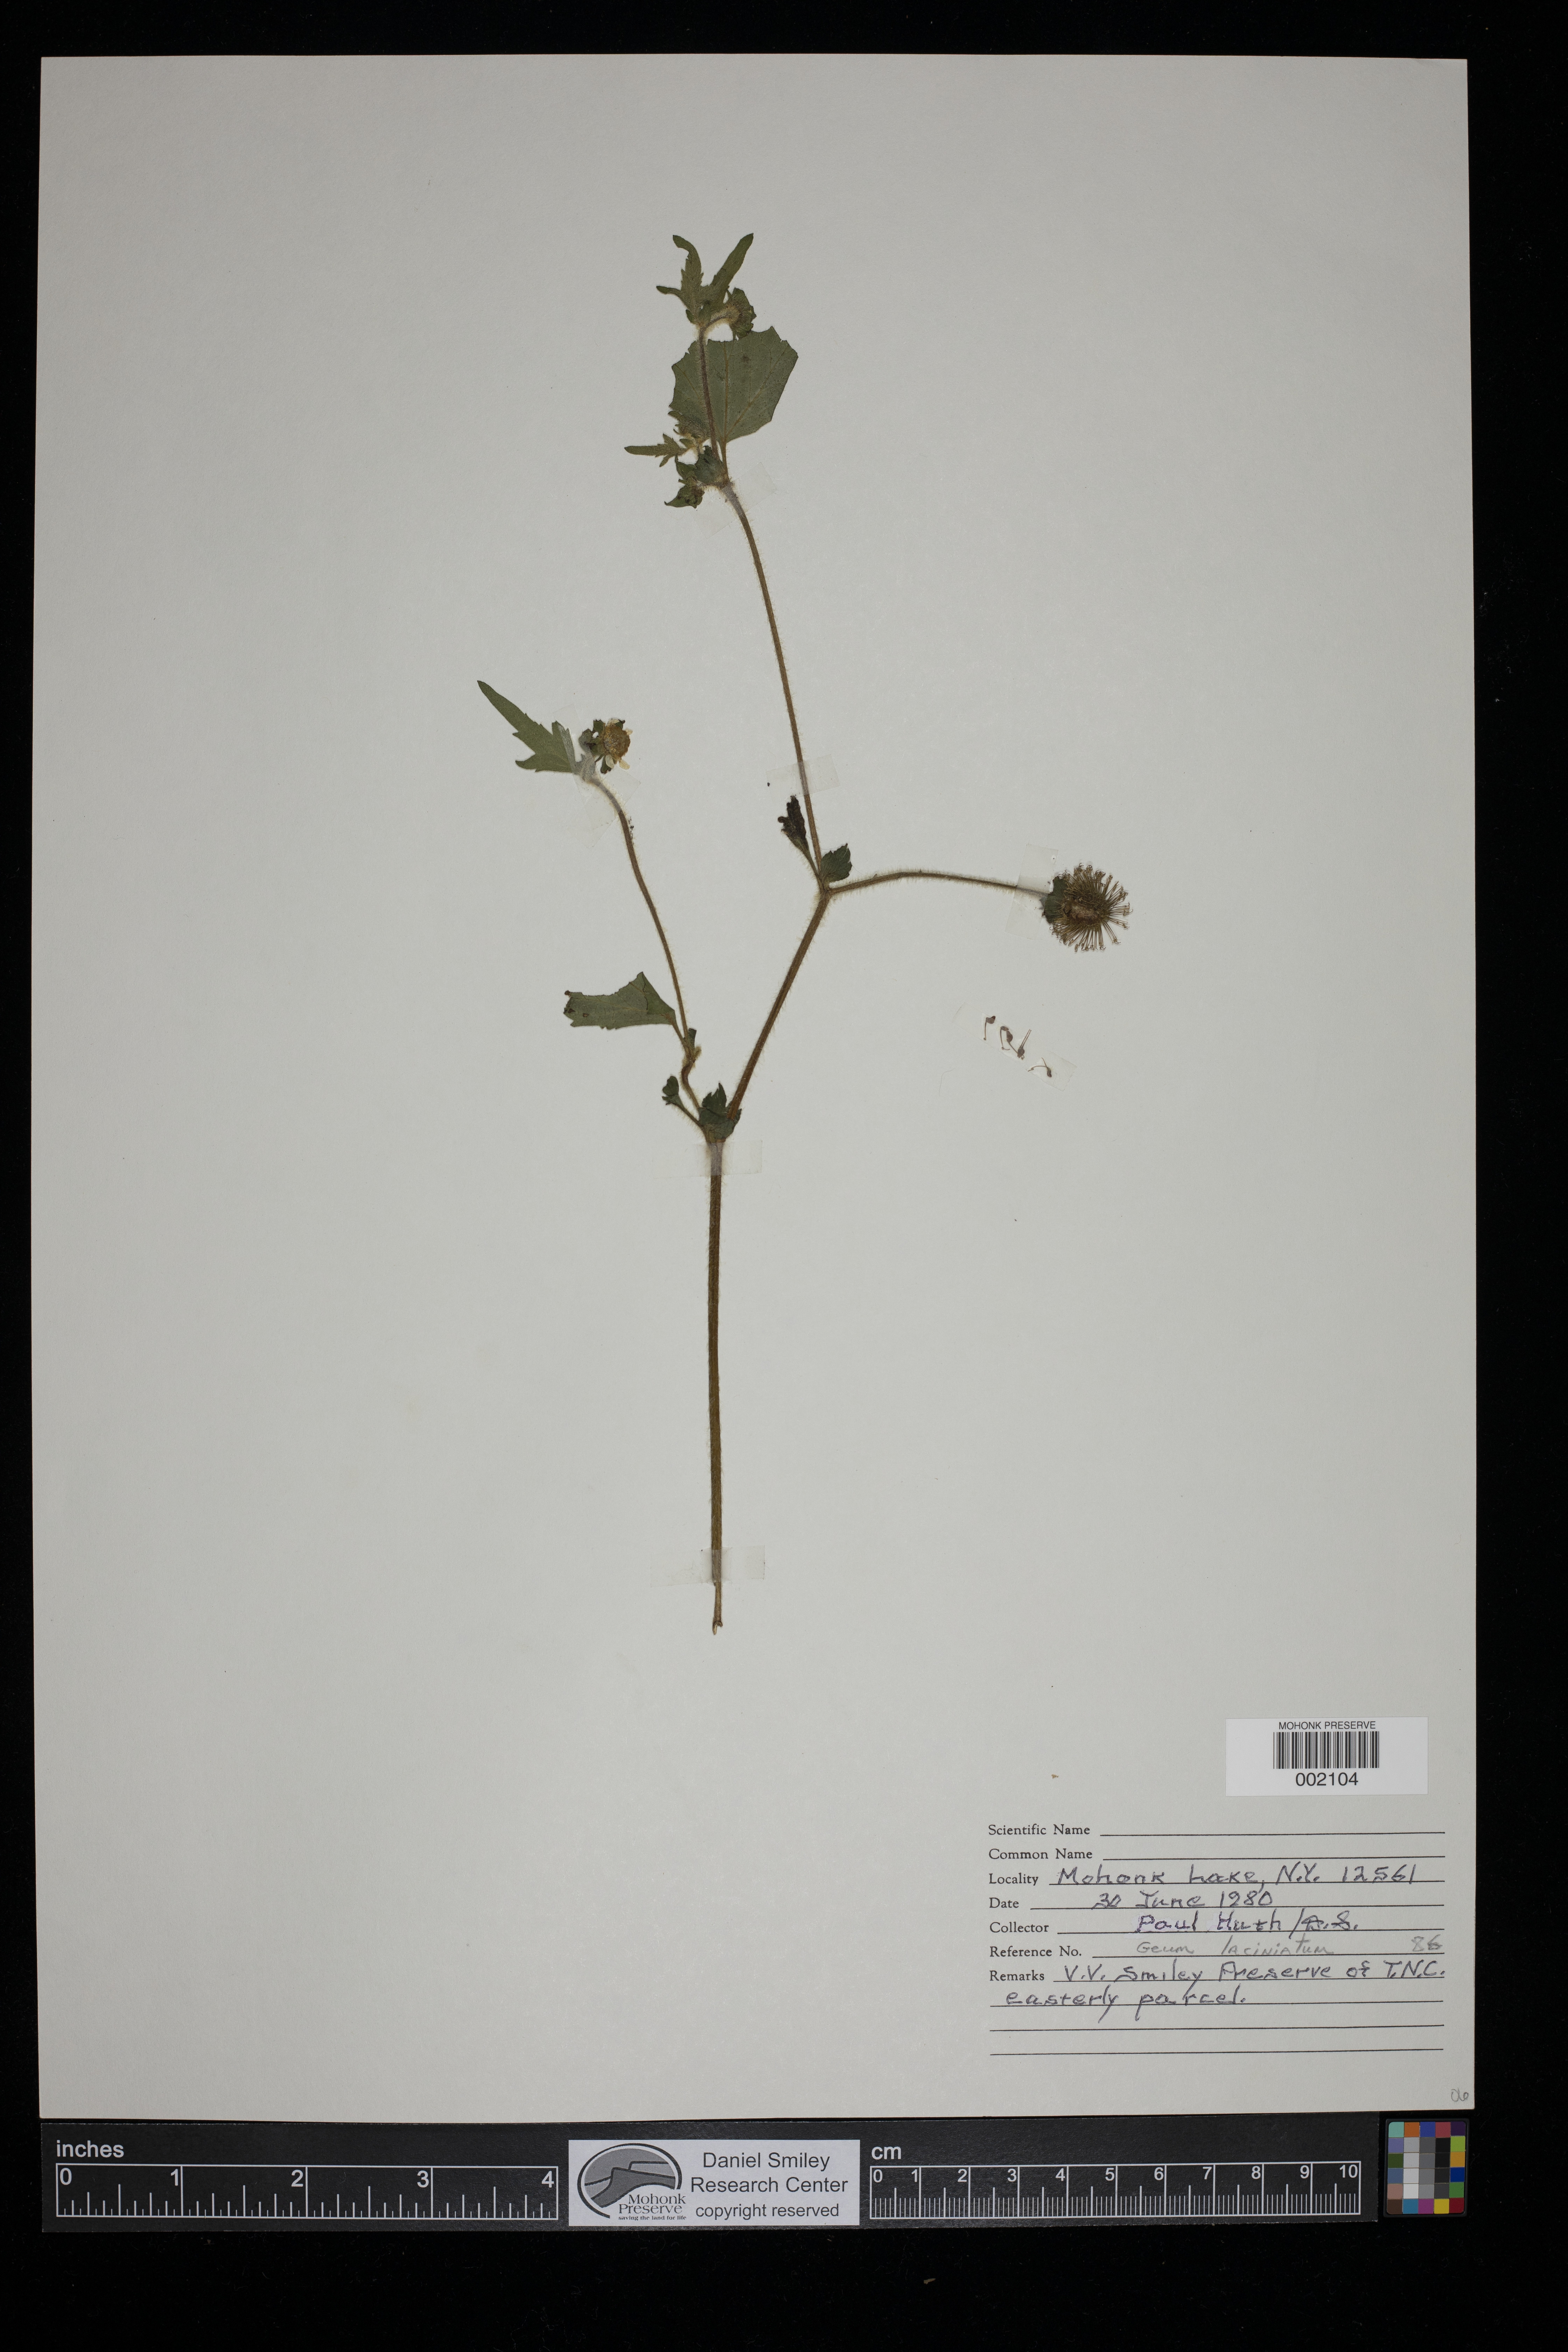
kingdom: Plantae
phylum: Tracheophyta
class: Magnoliopsida
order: Rosales
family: Rosaceae
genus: Geum
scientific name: Geum laciniatum
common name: Rough avens
